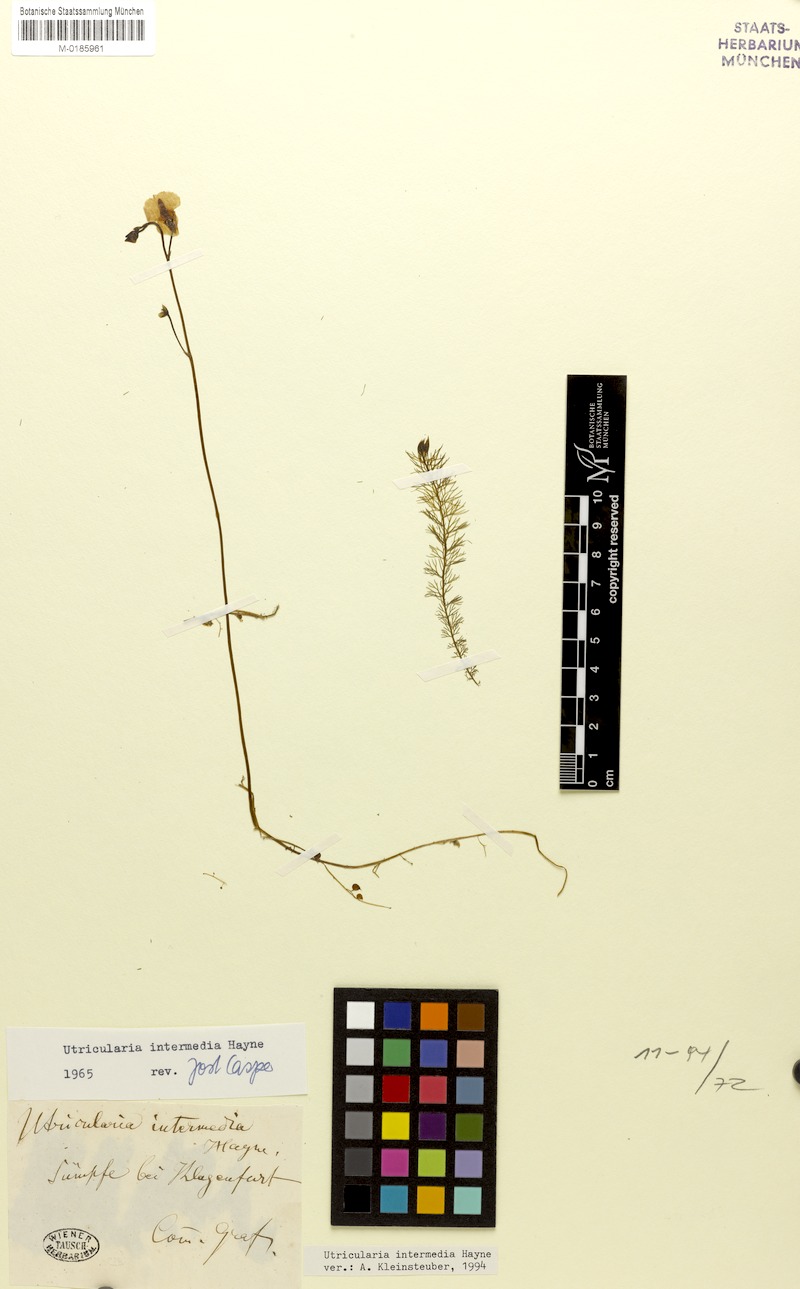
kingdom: Plantae
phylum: Tracheophyta
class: Magnoliopsida
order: Lamiales
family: Lentibulariaceae
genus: Utricularia
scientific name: Utricularia intermedia
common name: Intermediate bladderwort
